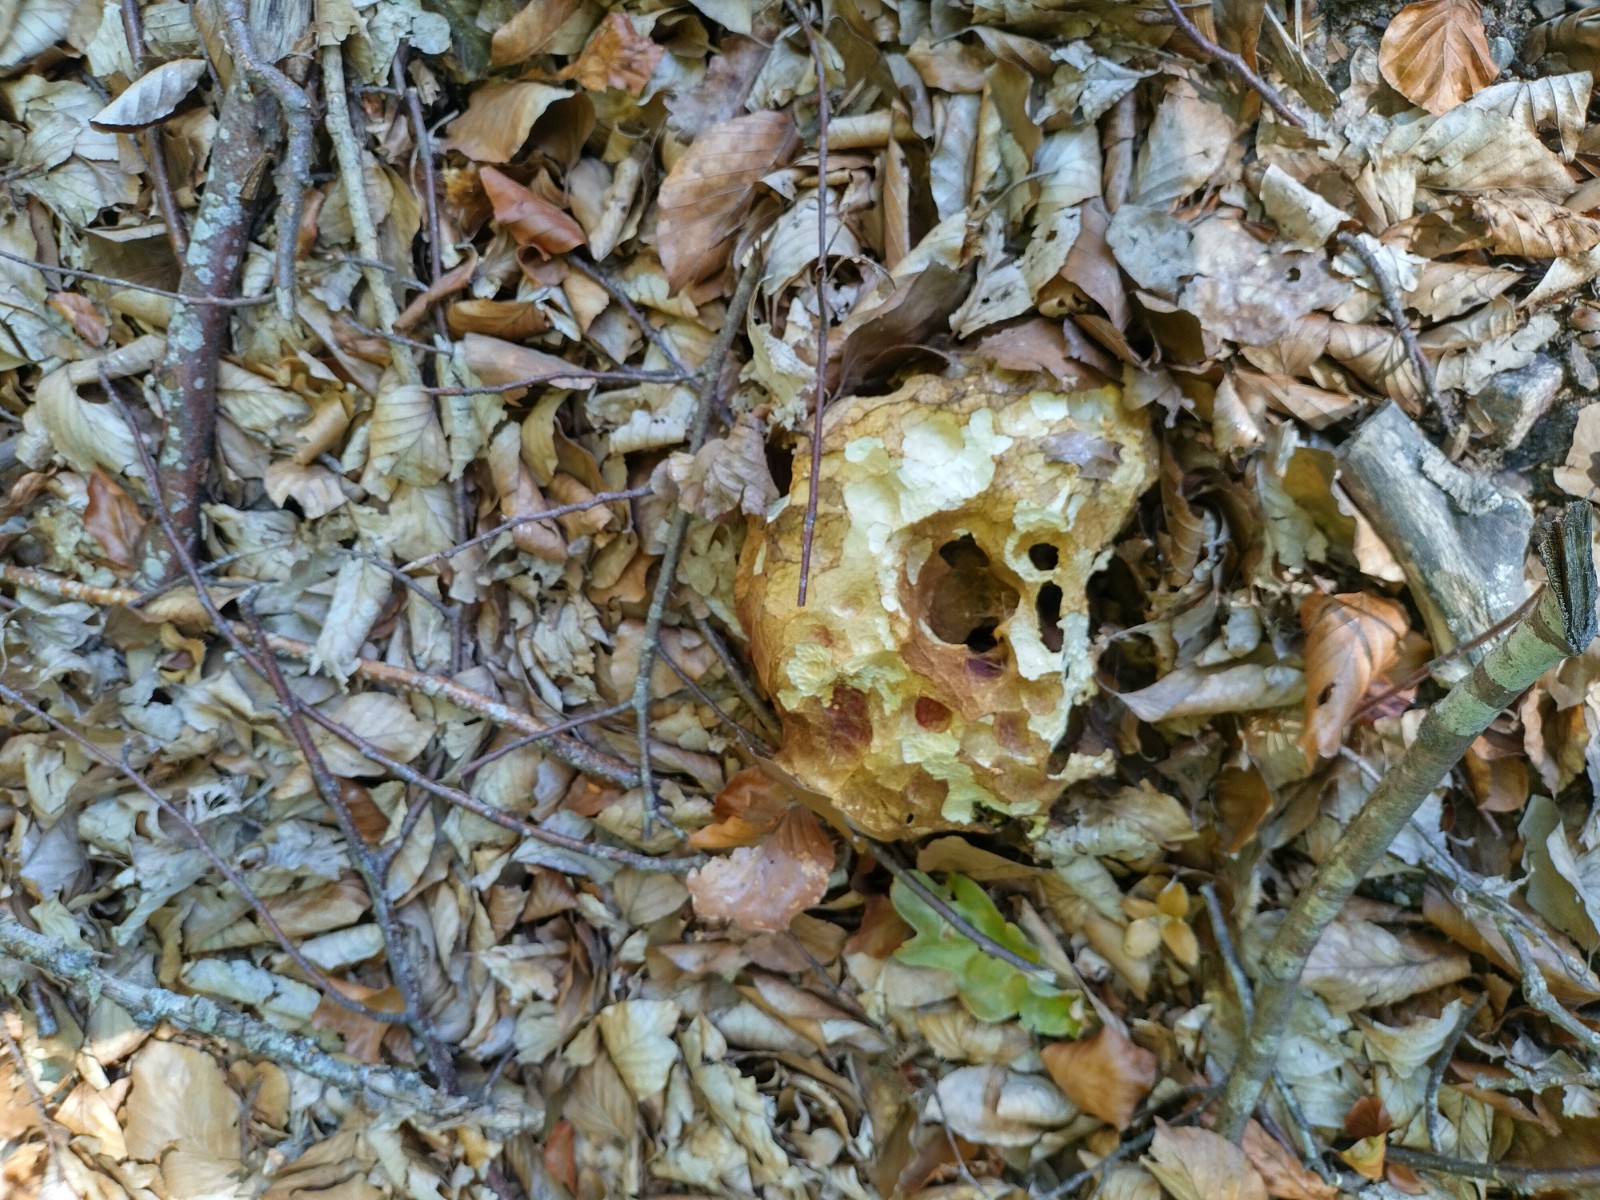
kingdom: Fungi
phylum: Basidiomycota
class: Agaricomycetes
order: Boletales
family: Boletaceae
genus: Boletus
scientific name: Boletus edulis
